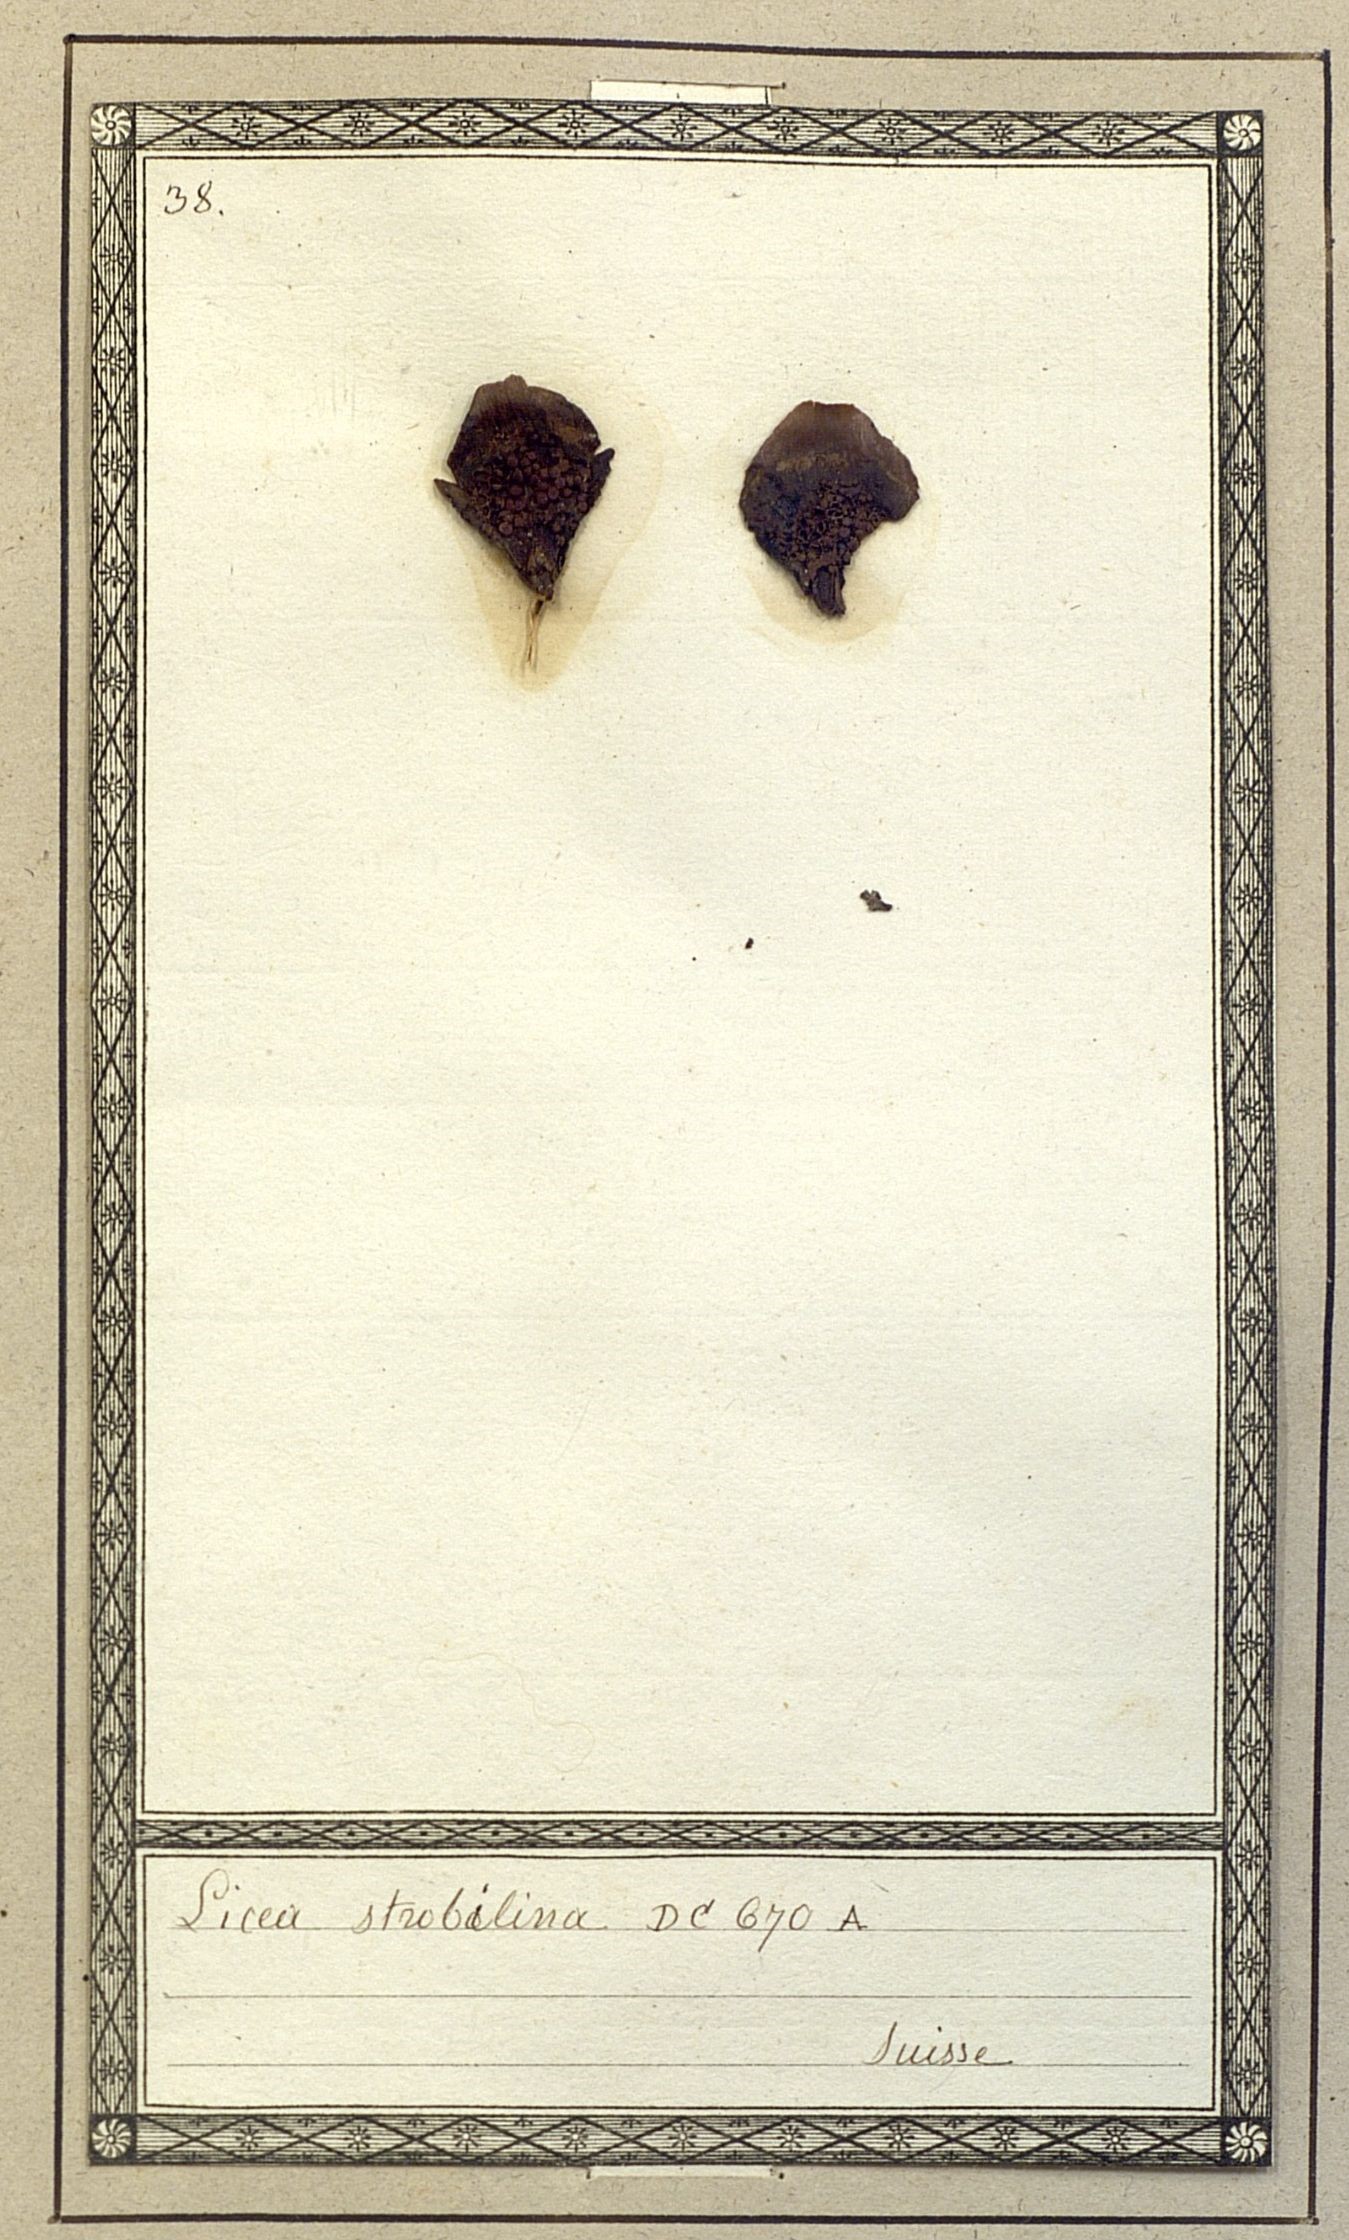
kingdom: Protozoa
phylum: Mycetozoa
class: Myxomycetes
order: Cribrariales
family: Liceaceae
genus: Licea
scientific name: Licea
